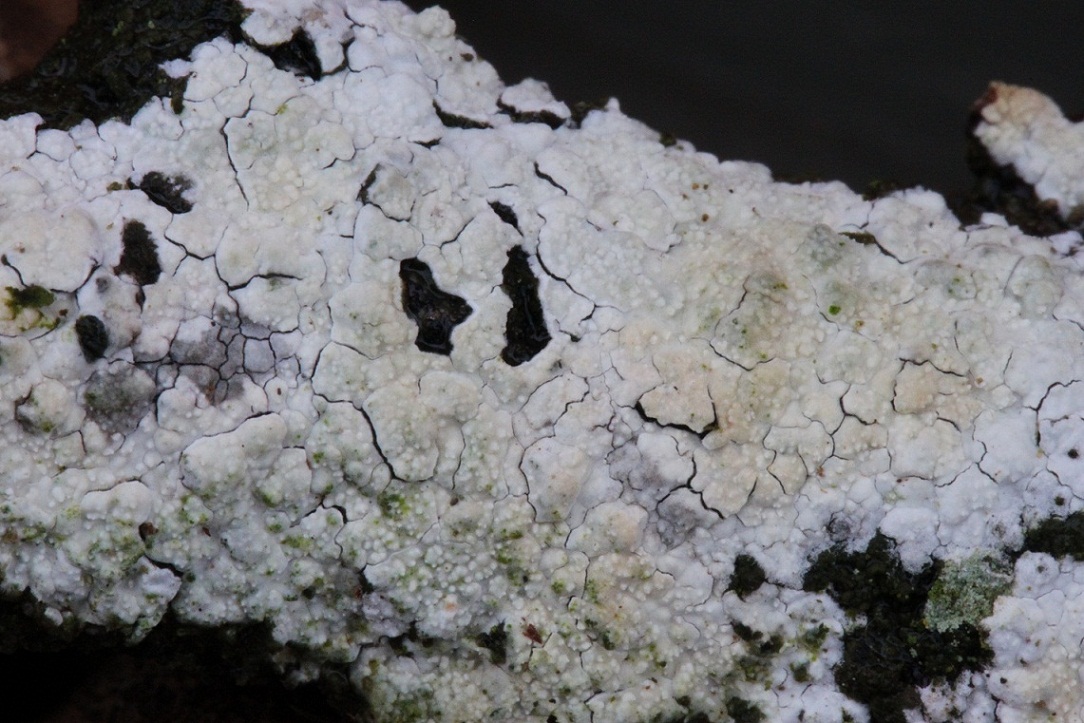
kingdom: Fungi
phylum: Basidiomycota
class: Agaricomycetes
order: Corticiales
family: Corticiaceae
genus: Lyomyces
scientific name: Lyomyces crustosus
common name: vortet hyldehinde
